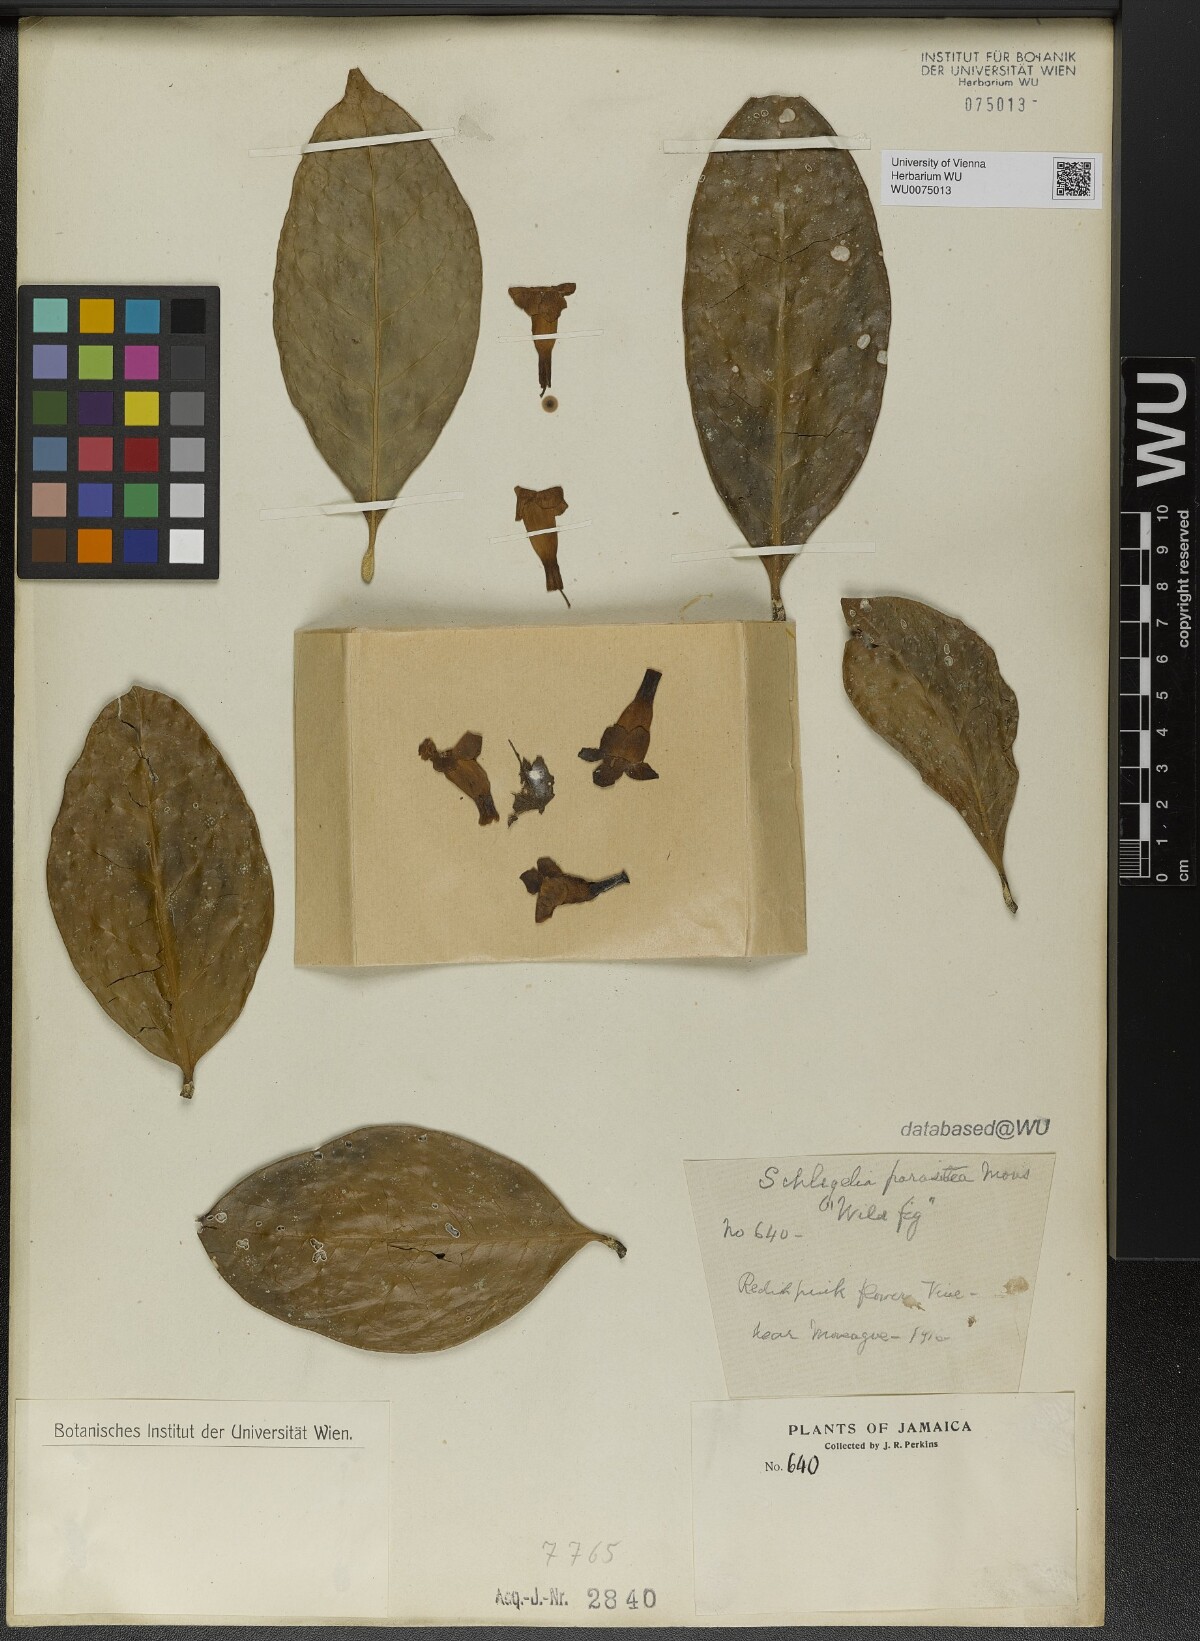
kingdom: Plantae
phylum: Tracheophyta
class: Magnoliopsida
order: Lamiales
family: Schlegeliaceae
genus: Schlegelia
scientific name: Schlegelia parasitica
